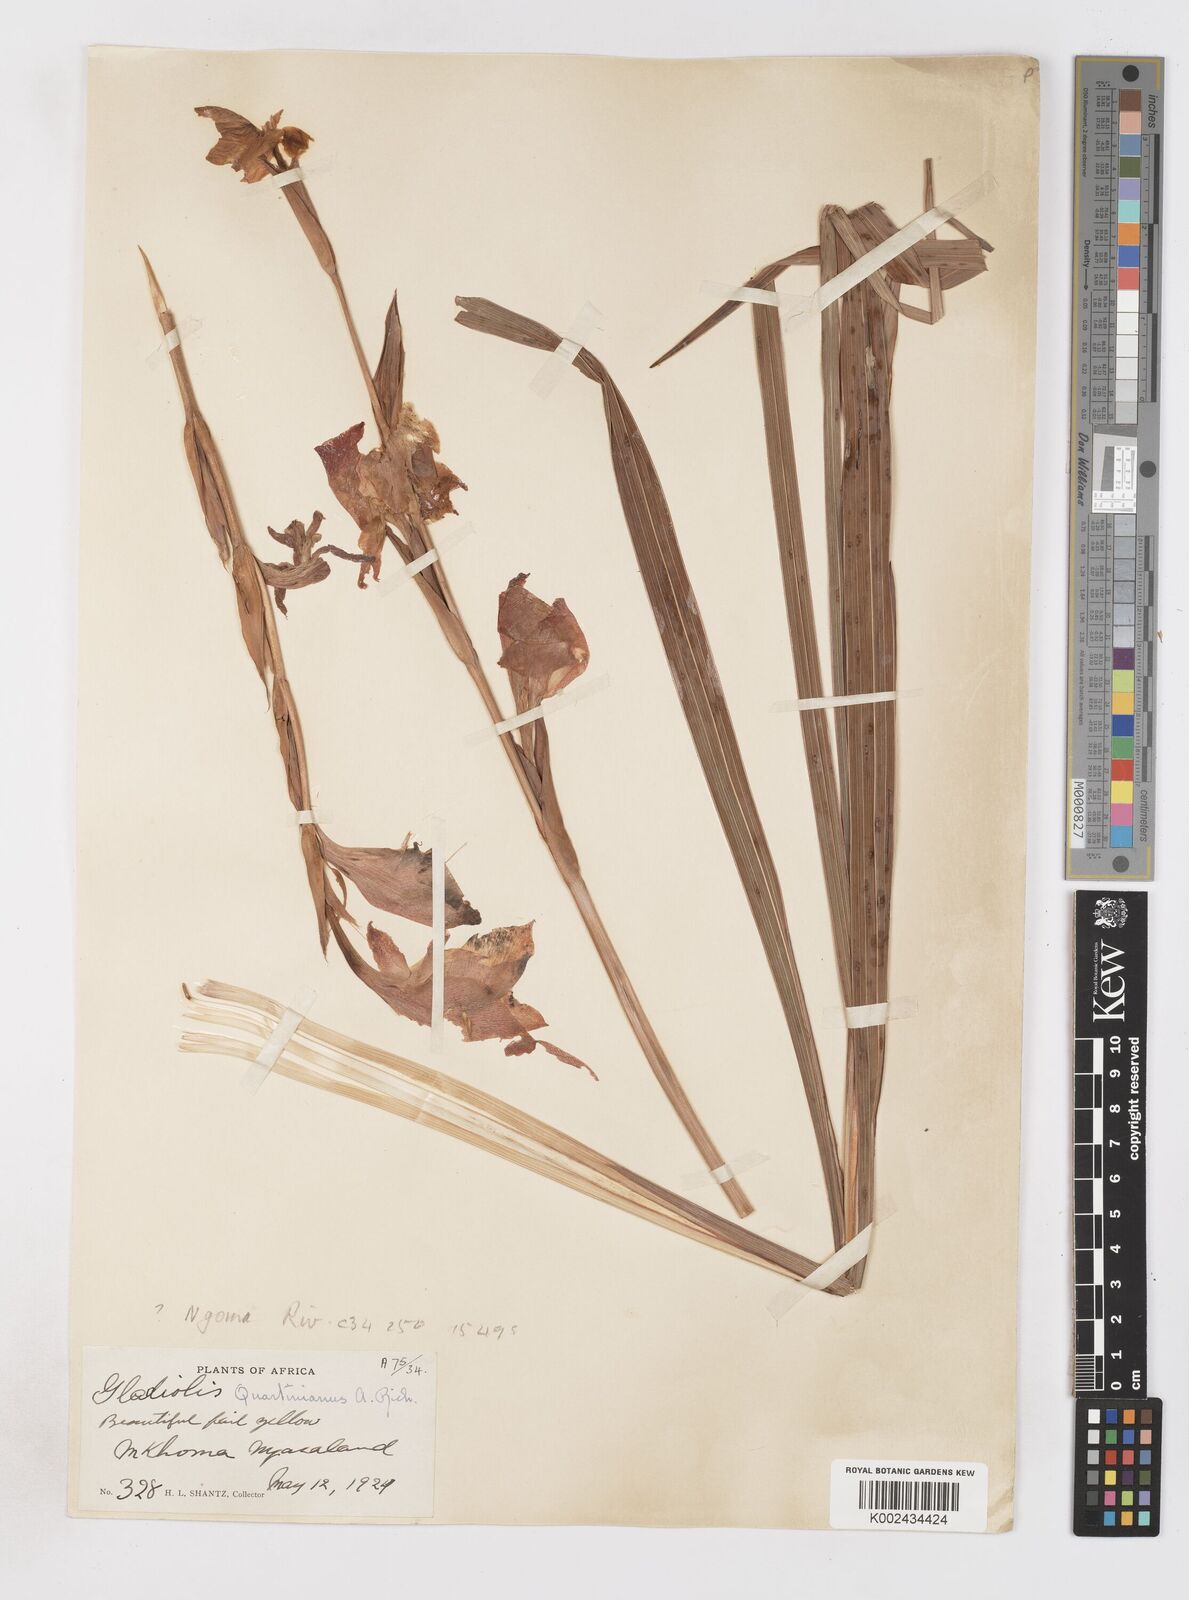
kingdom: Plantae
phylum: Tracheophyta
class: Liliopsida
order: Asparagales
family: Iridaceae
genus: Gladiolus
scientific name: Gladiolus dalenii
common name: Cornflag
